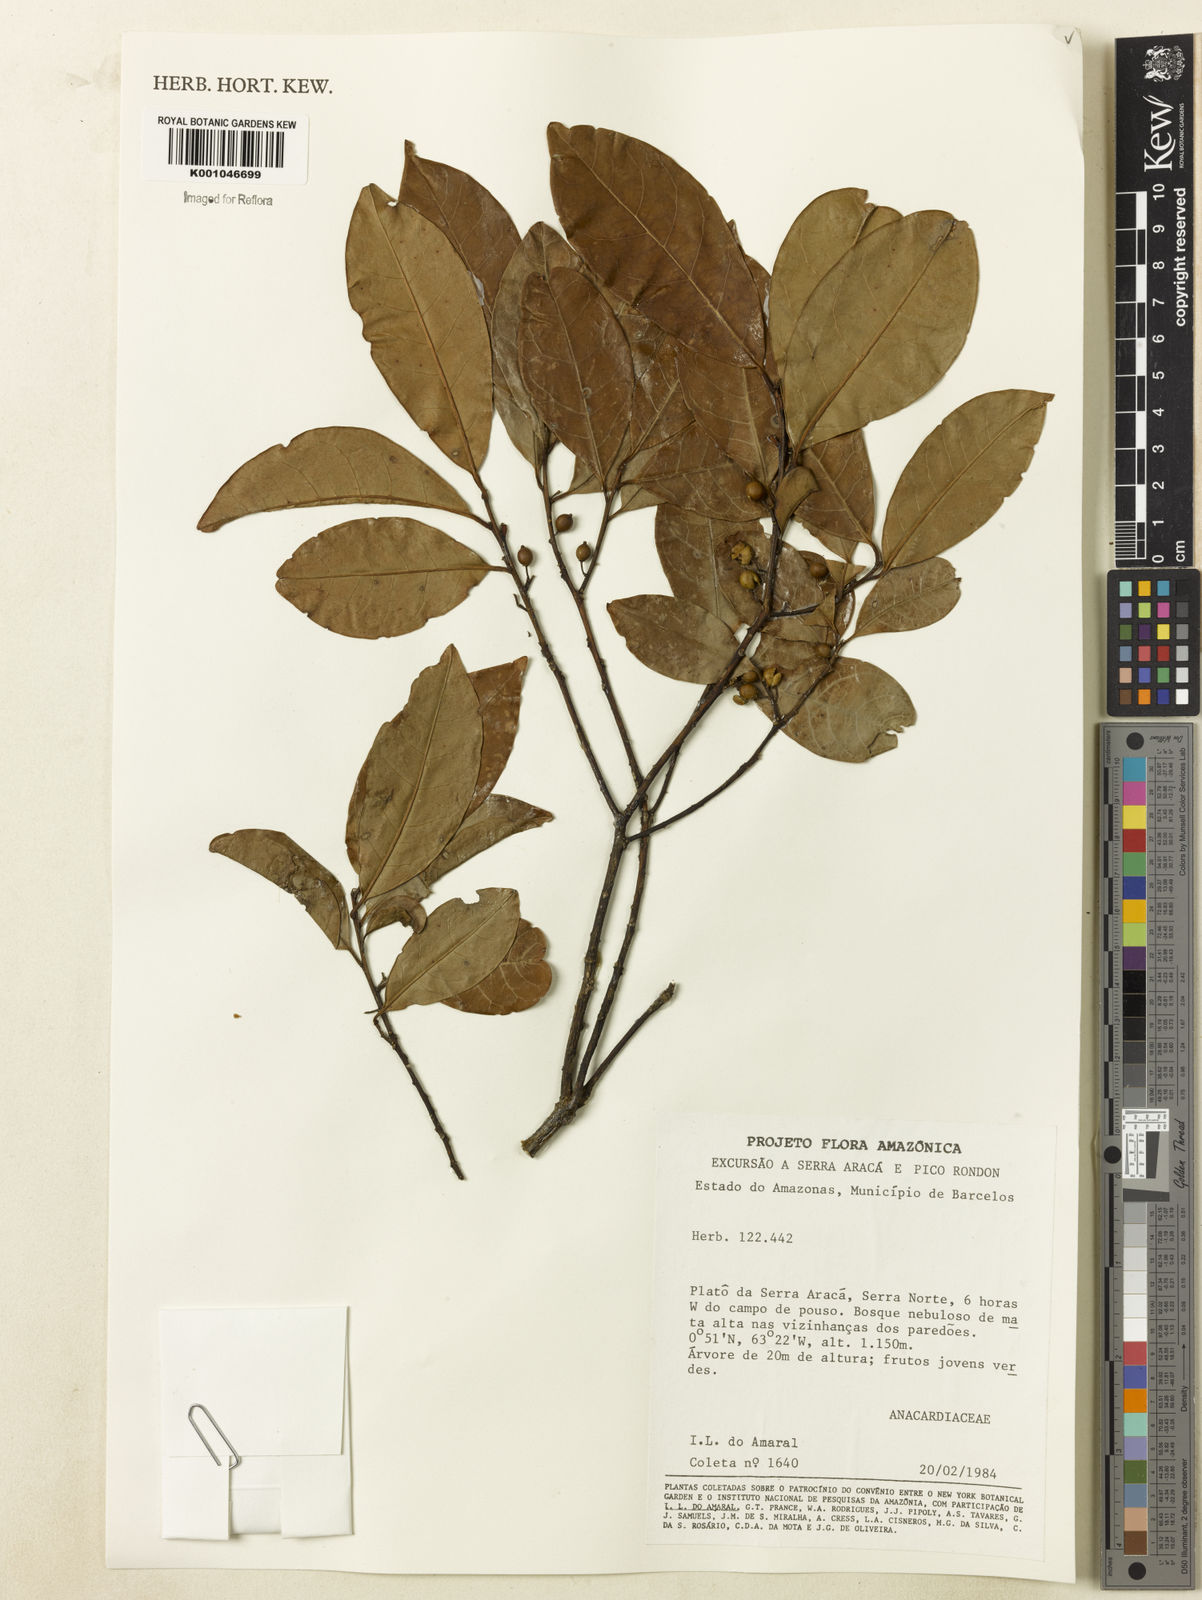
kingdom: Plantae
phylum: Tracheophyta
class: Magnoliopsida
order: Aquifoliales
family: Aquifoliaceae
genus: Ilex
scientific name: Ilex inundata
